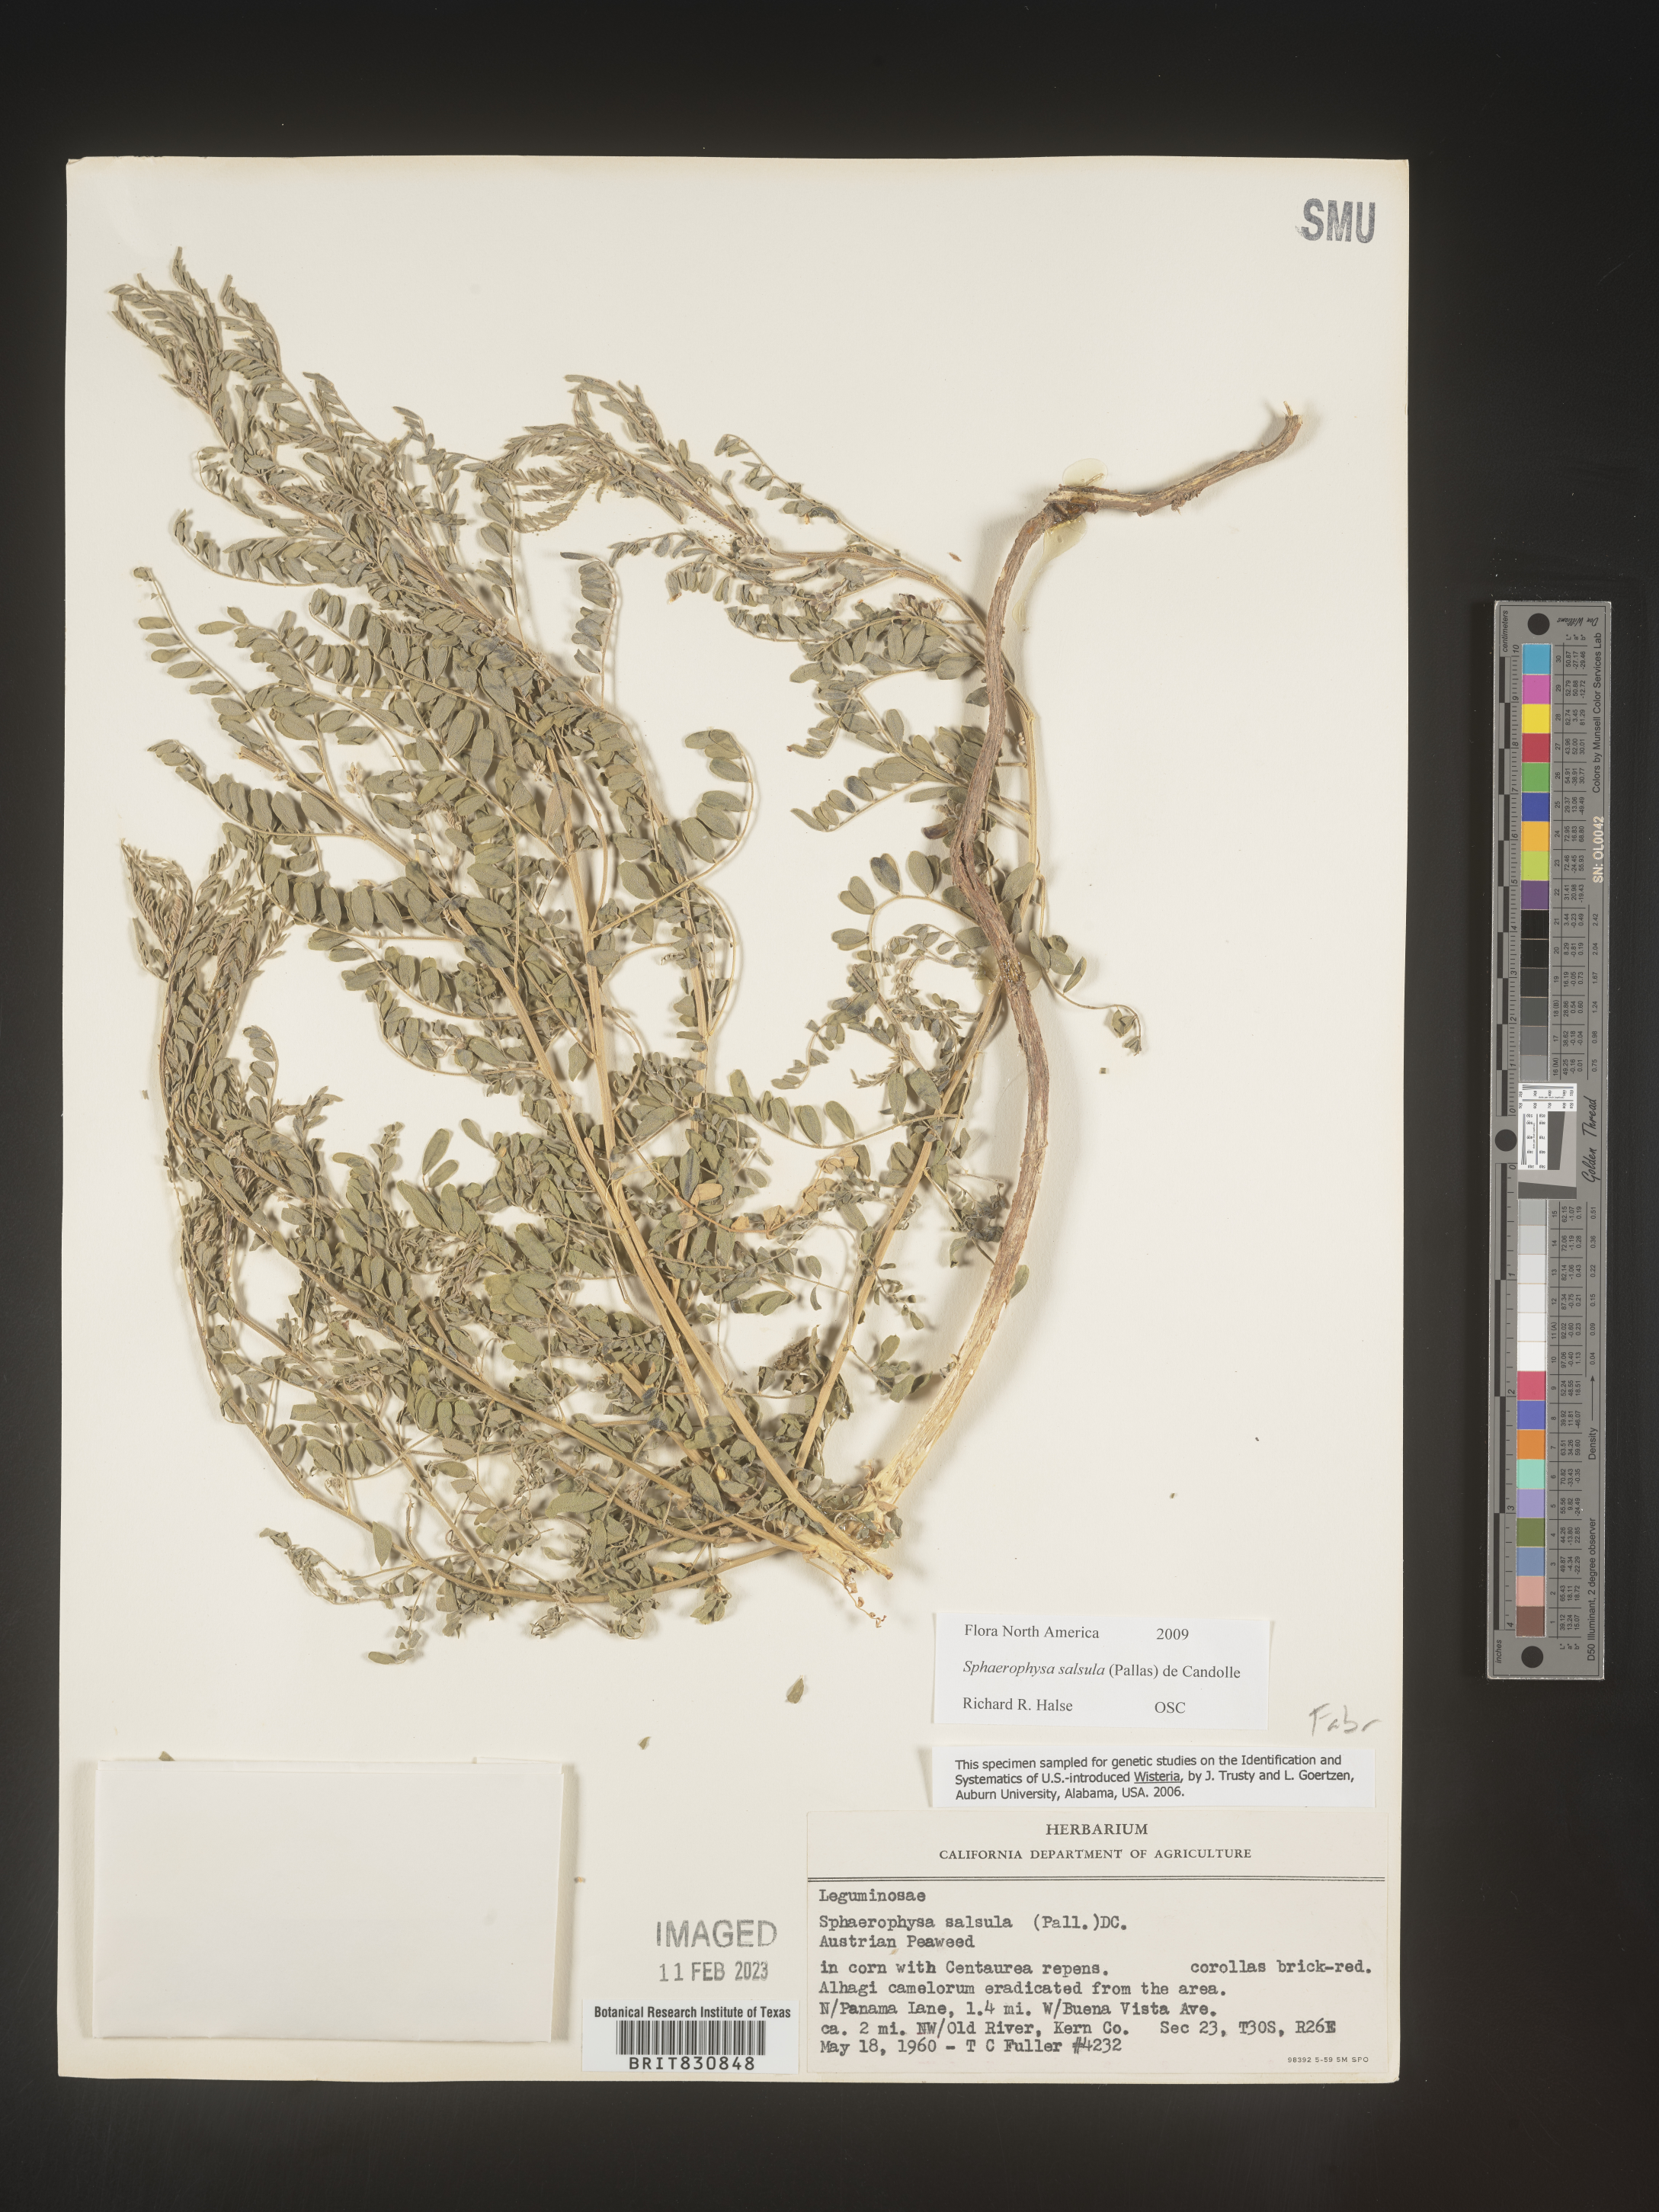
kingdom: Plantae
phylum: Tracheophyta
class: Magnoliopsida
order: Fabales
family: Fabaceae
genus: Sphaerophysa
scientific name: Sphaerophysa
